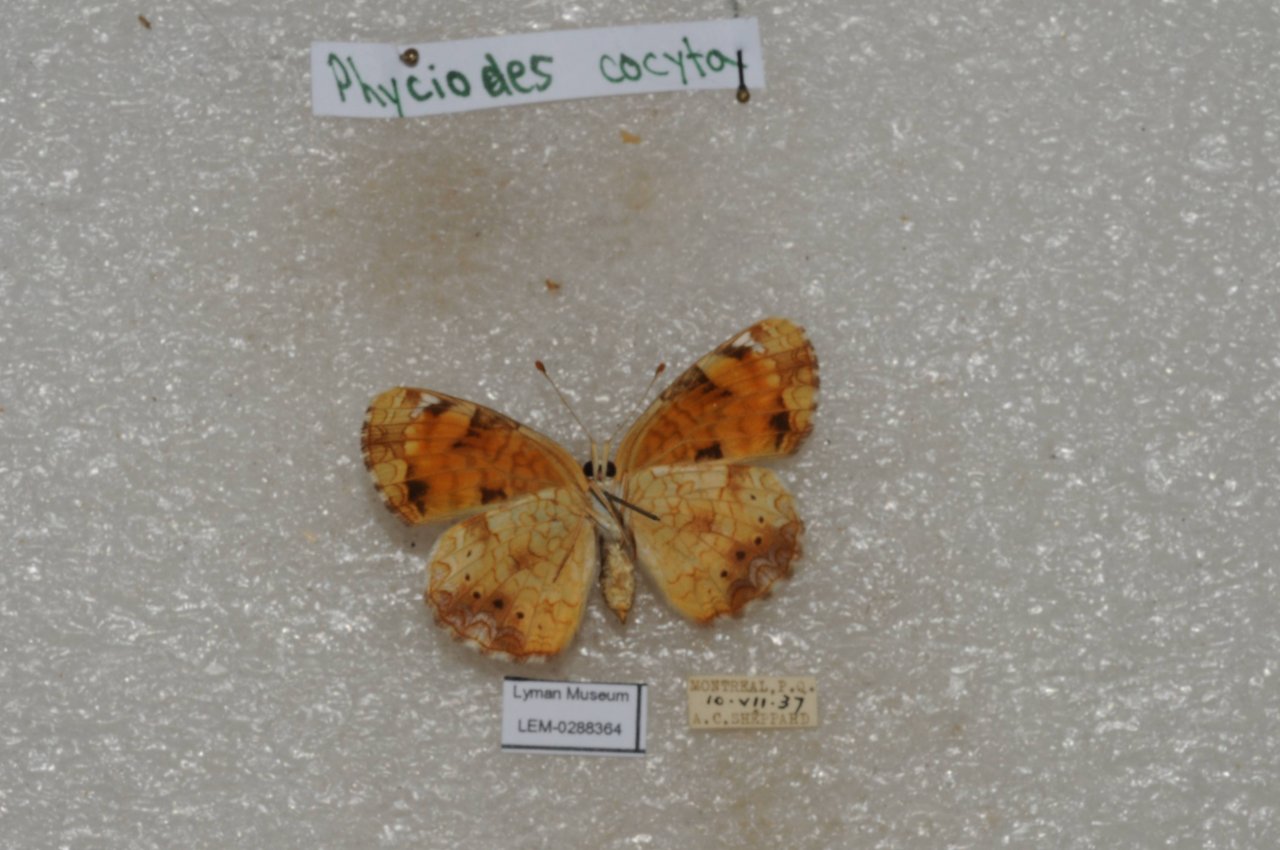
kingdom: Animalia
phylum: Arthropoda
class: Insecta
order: Lepidoptera
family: Nymphalidae
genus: Phyciodes
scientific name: Phyciodes tharos
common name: Northern Crescent
